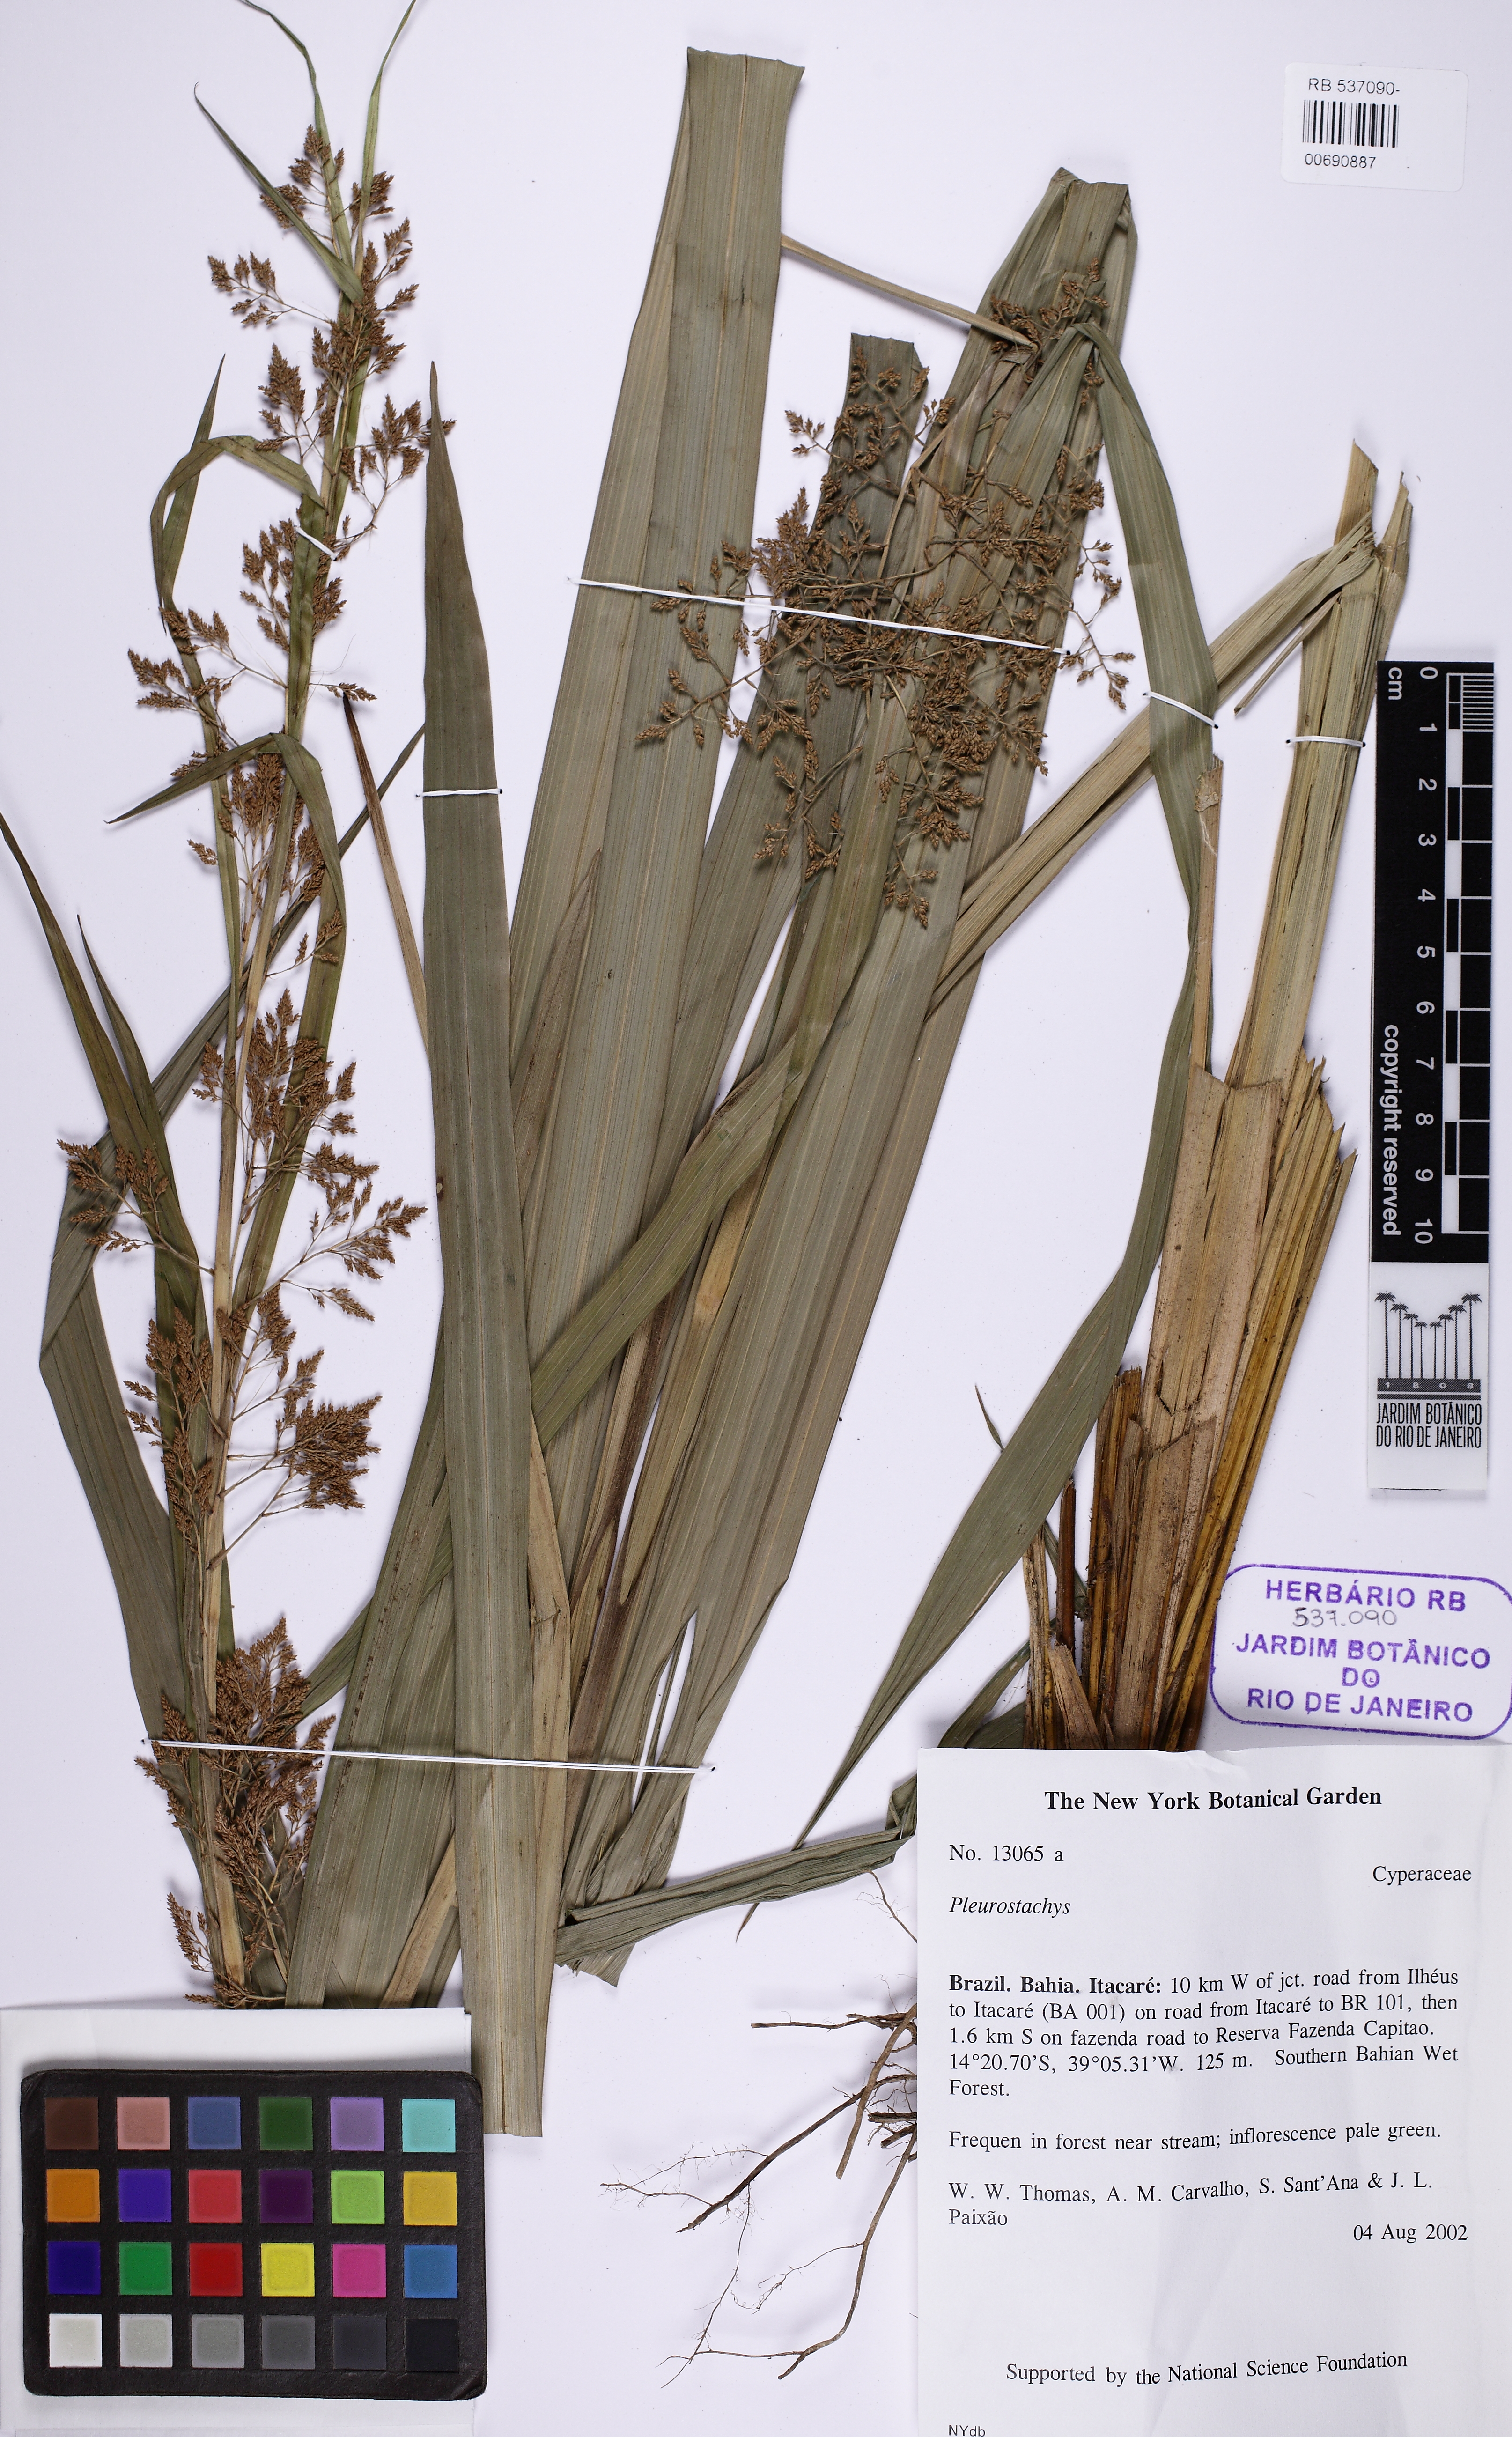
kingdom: Plantae
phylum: Tracheophyta
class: Liliopsida
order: Poales
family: Cyperaceae
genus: Rhynchospora
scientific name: Rhynchospora
